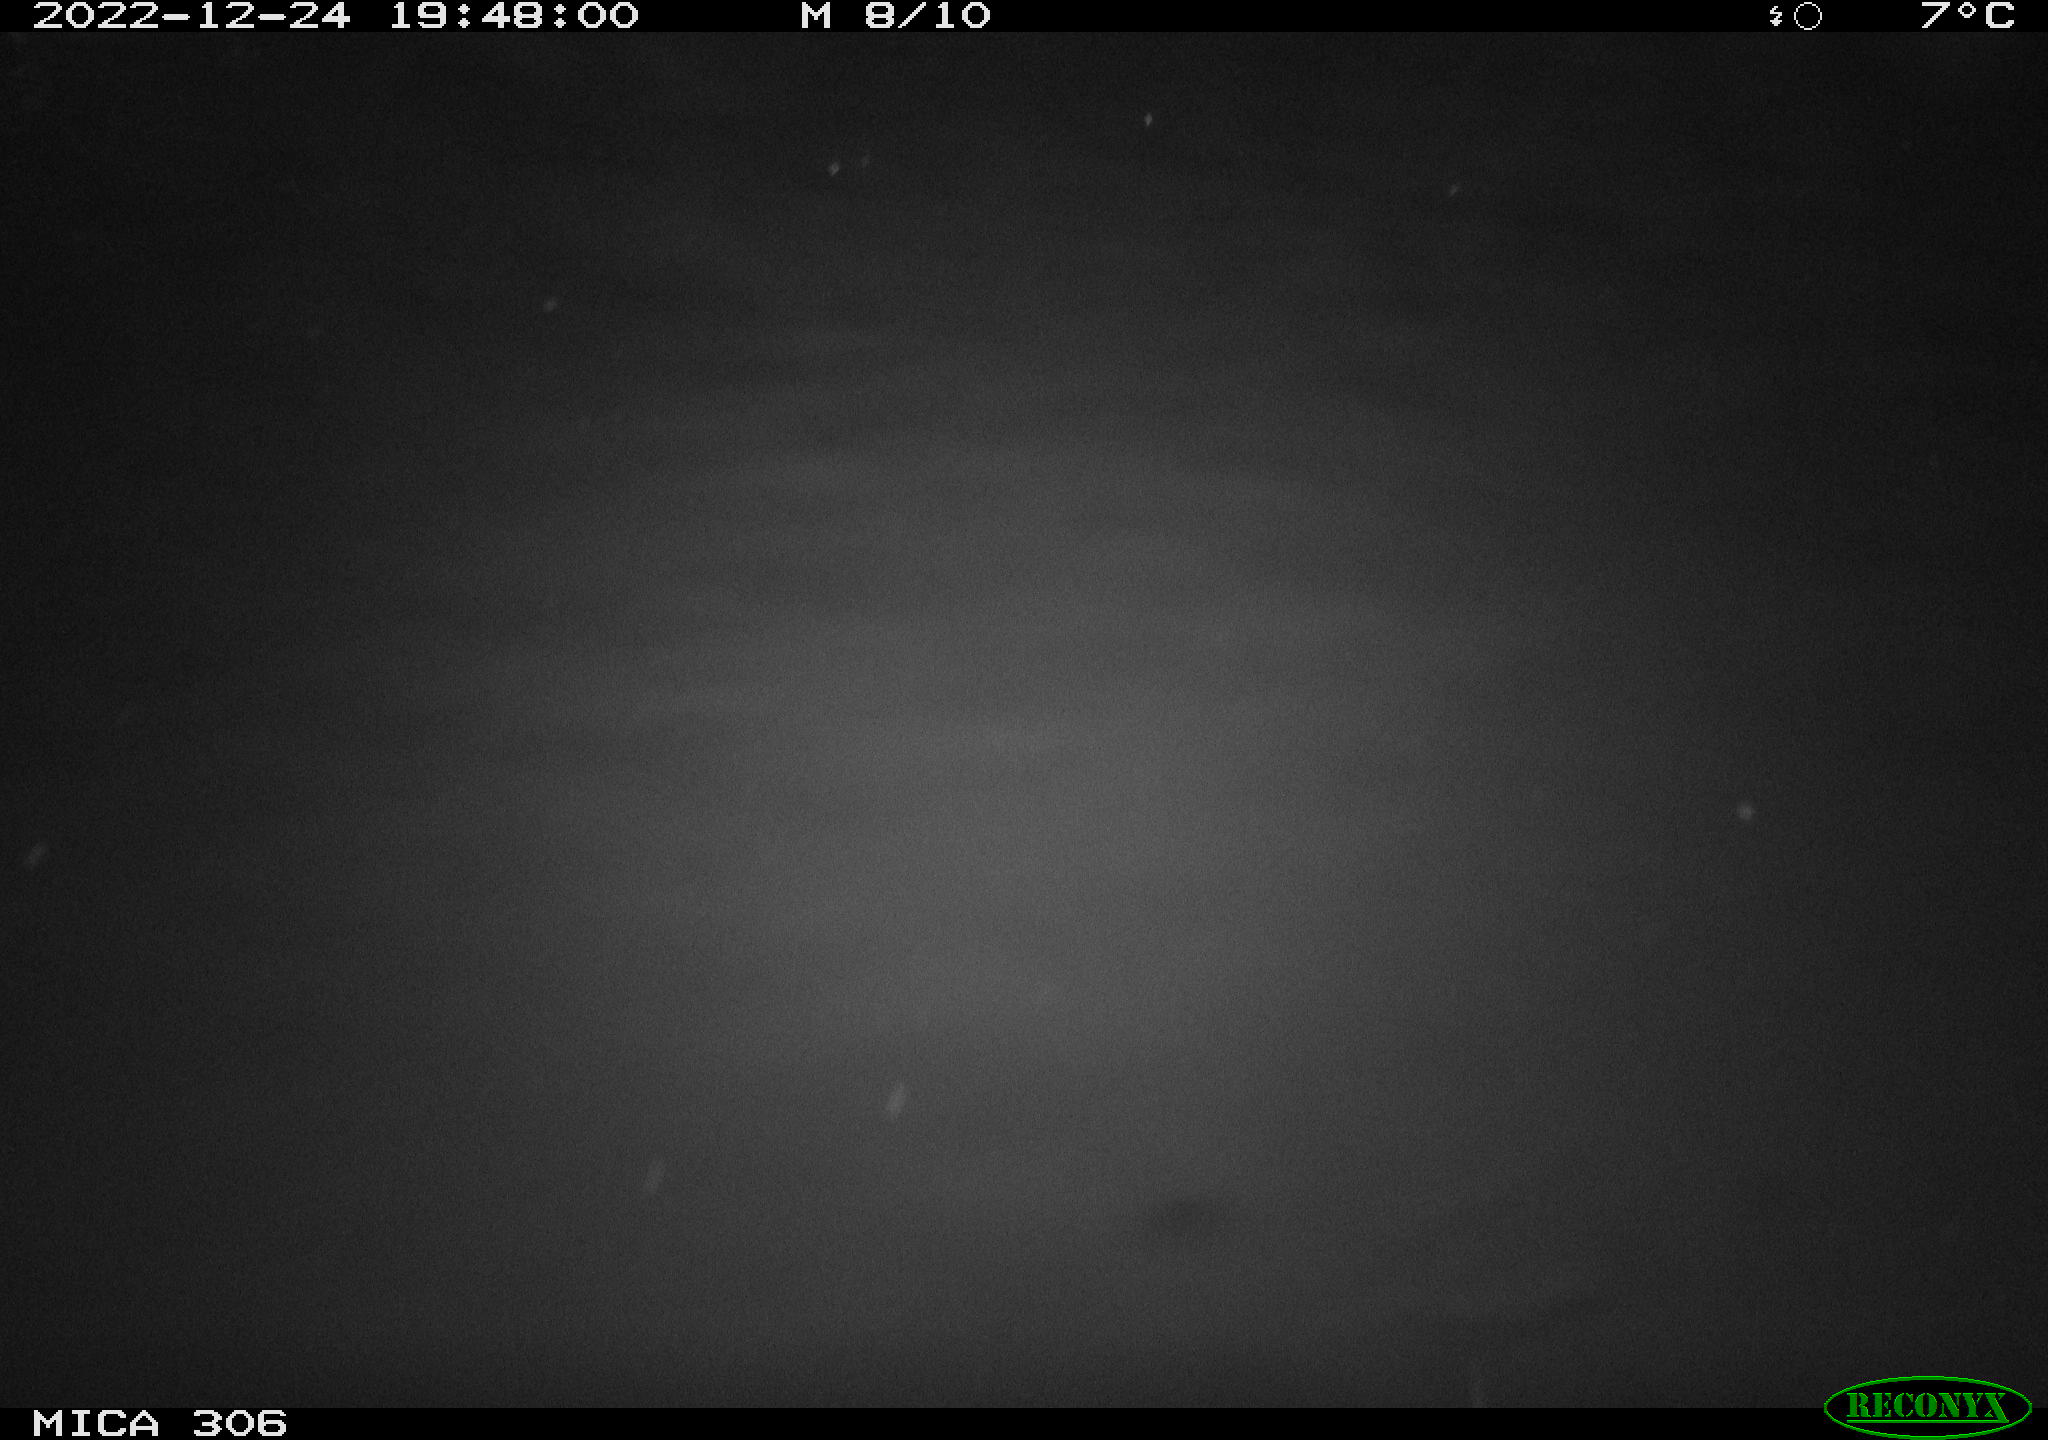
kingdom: Animalia
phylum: Chordata
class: Mammalia
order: Rodentia
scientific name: Rodentia
